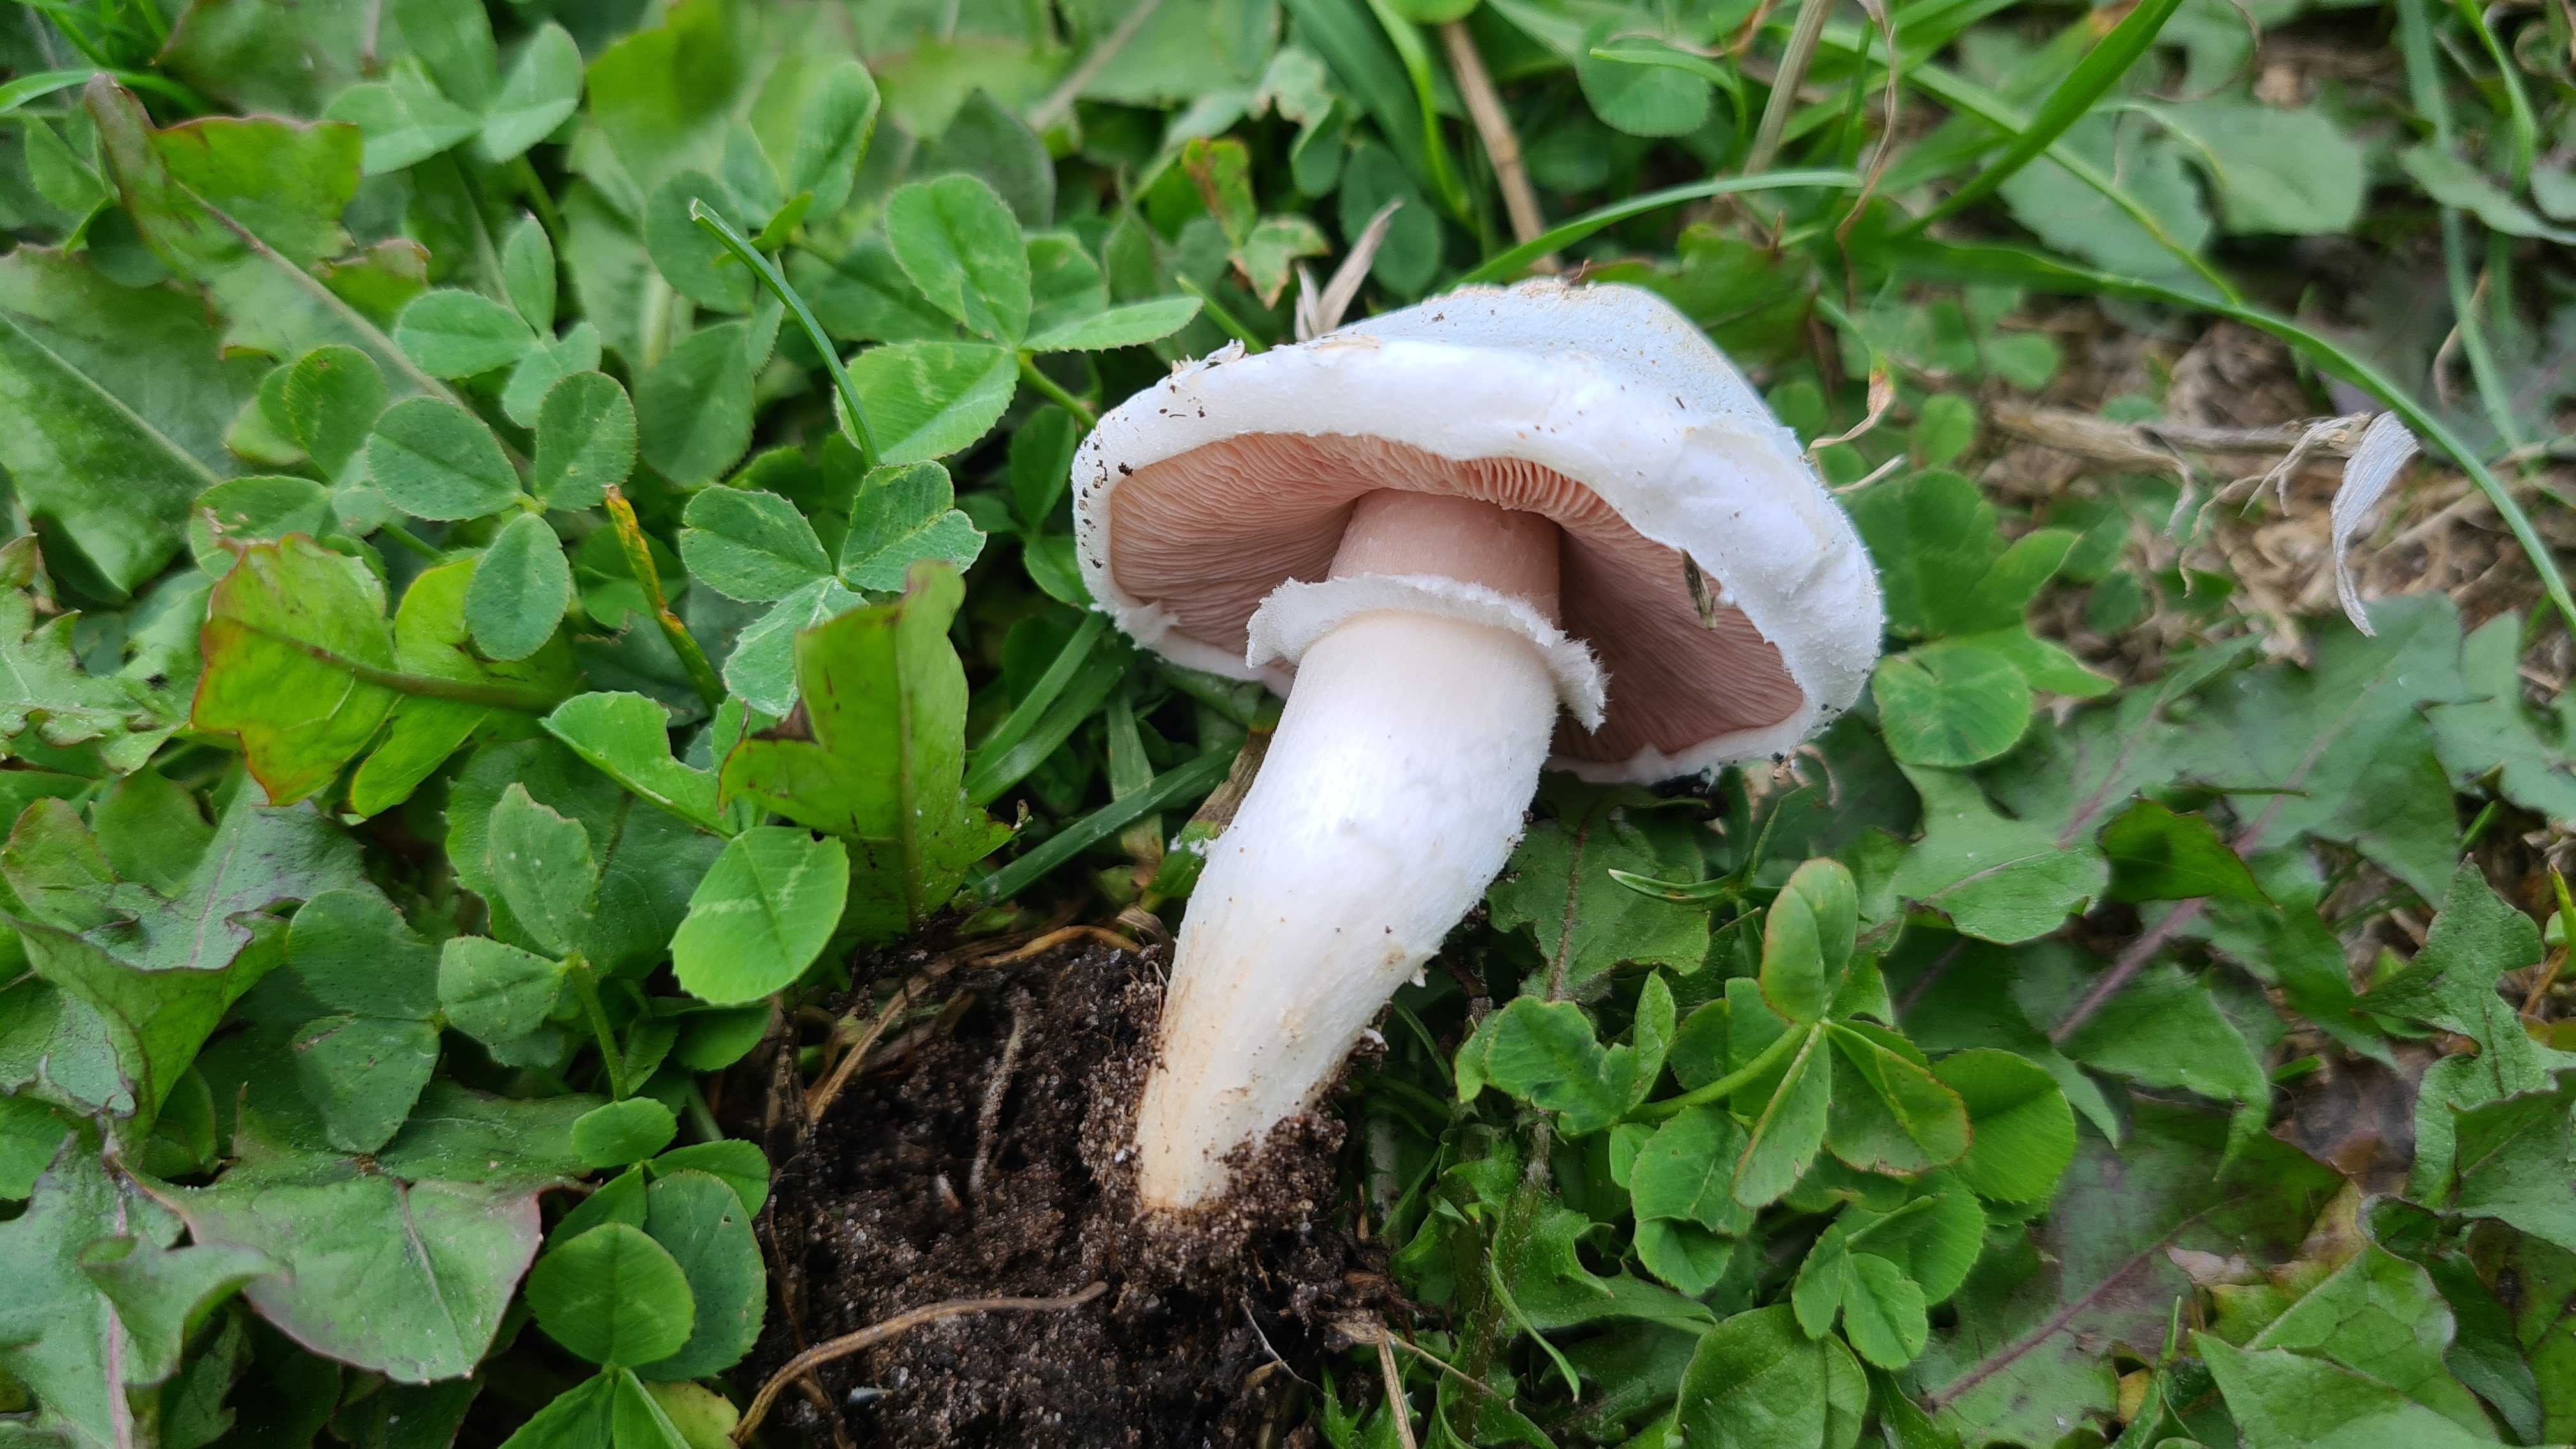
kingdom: Fungi
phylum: Basidiomycota
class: Agaricomycetes
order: Agaricales
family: Agaricaceae
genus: Agaricus
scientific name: Agaricus campestris
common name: mark-champignon
